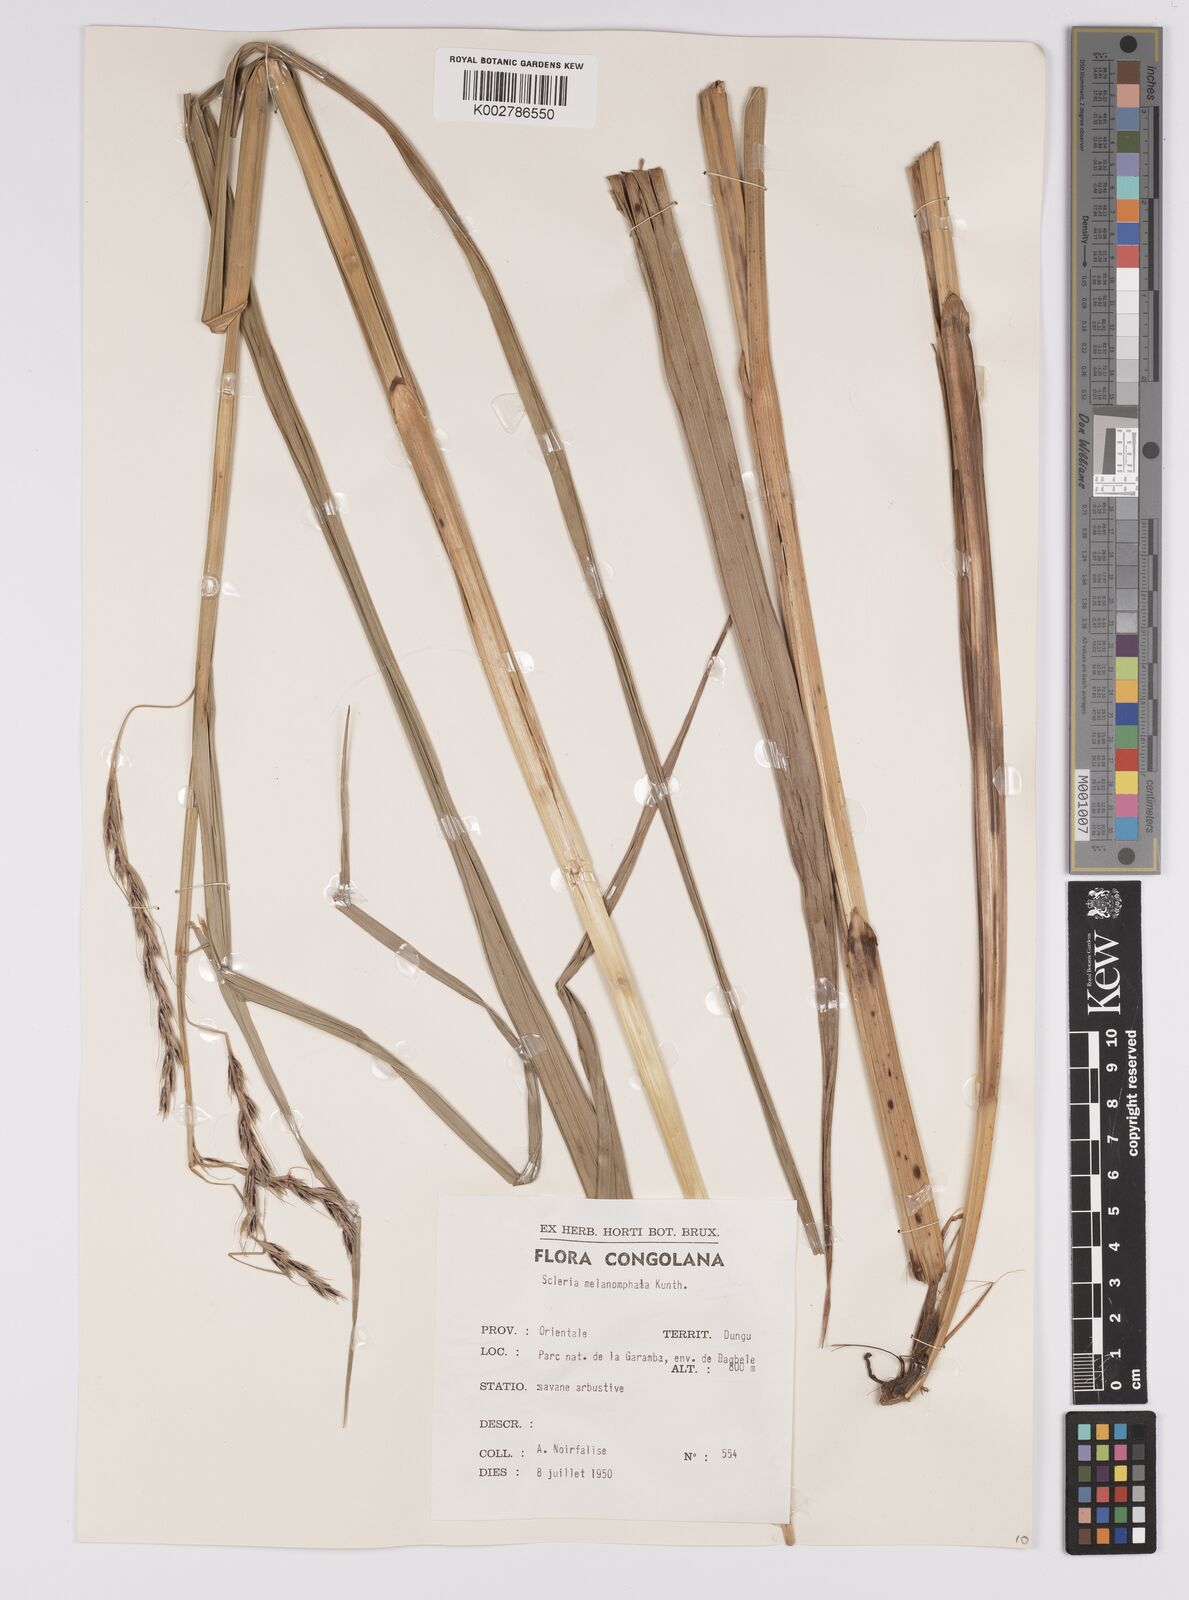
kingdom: Plantae
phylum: Tracheophyta
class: Liliopsida
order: Poales
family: Cyperaceae
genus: Scleria
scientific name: Scleria melanomphala
